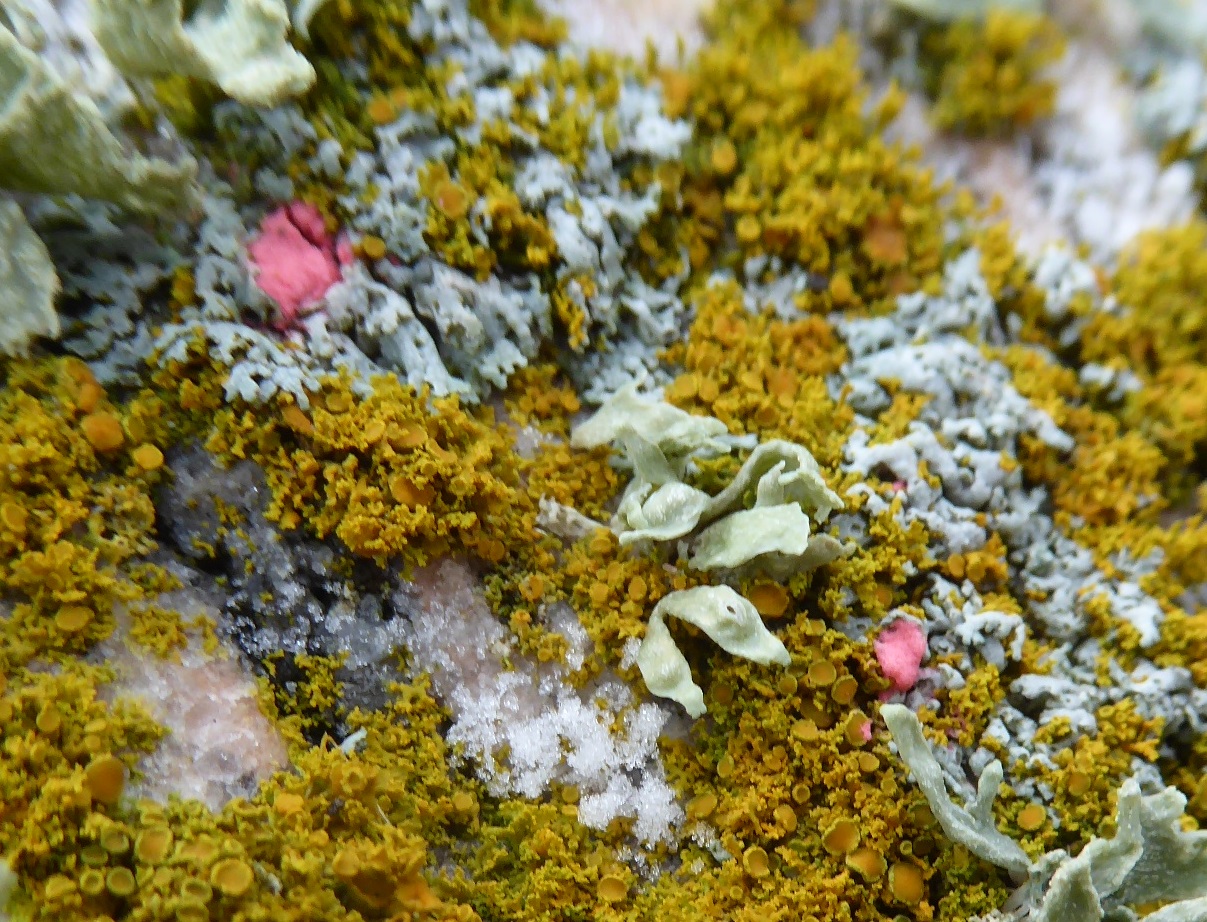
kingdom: Fungi
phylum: Ascomycota
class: Sordariomycetes
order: Hypocreales
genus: Illosporiopsis
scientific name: Illosporiopsis christiansenii
